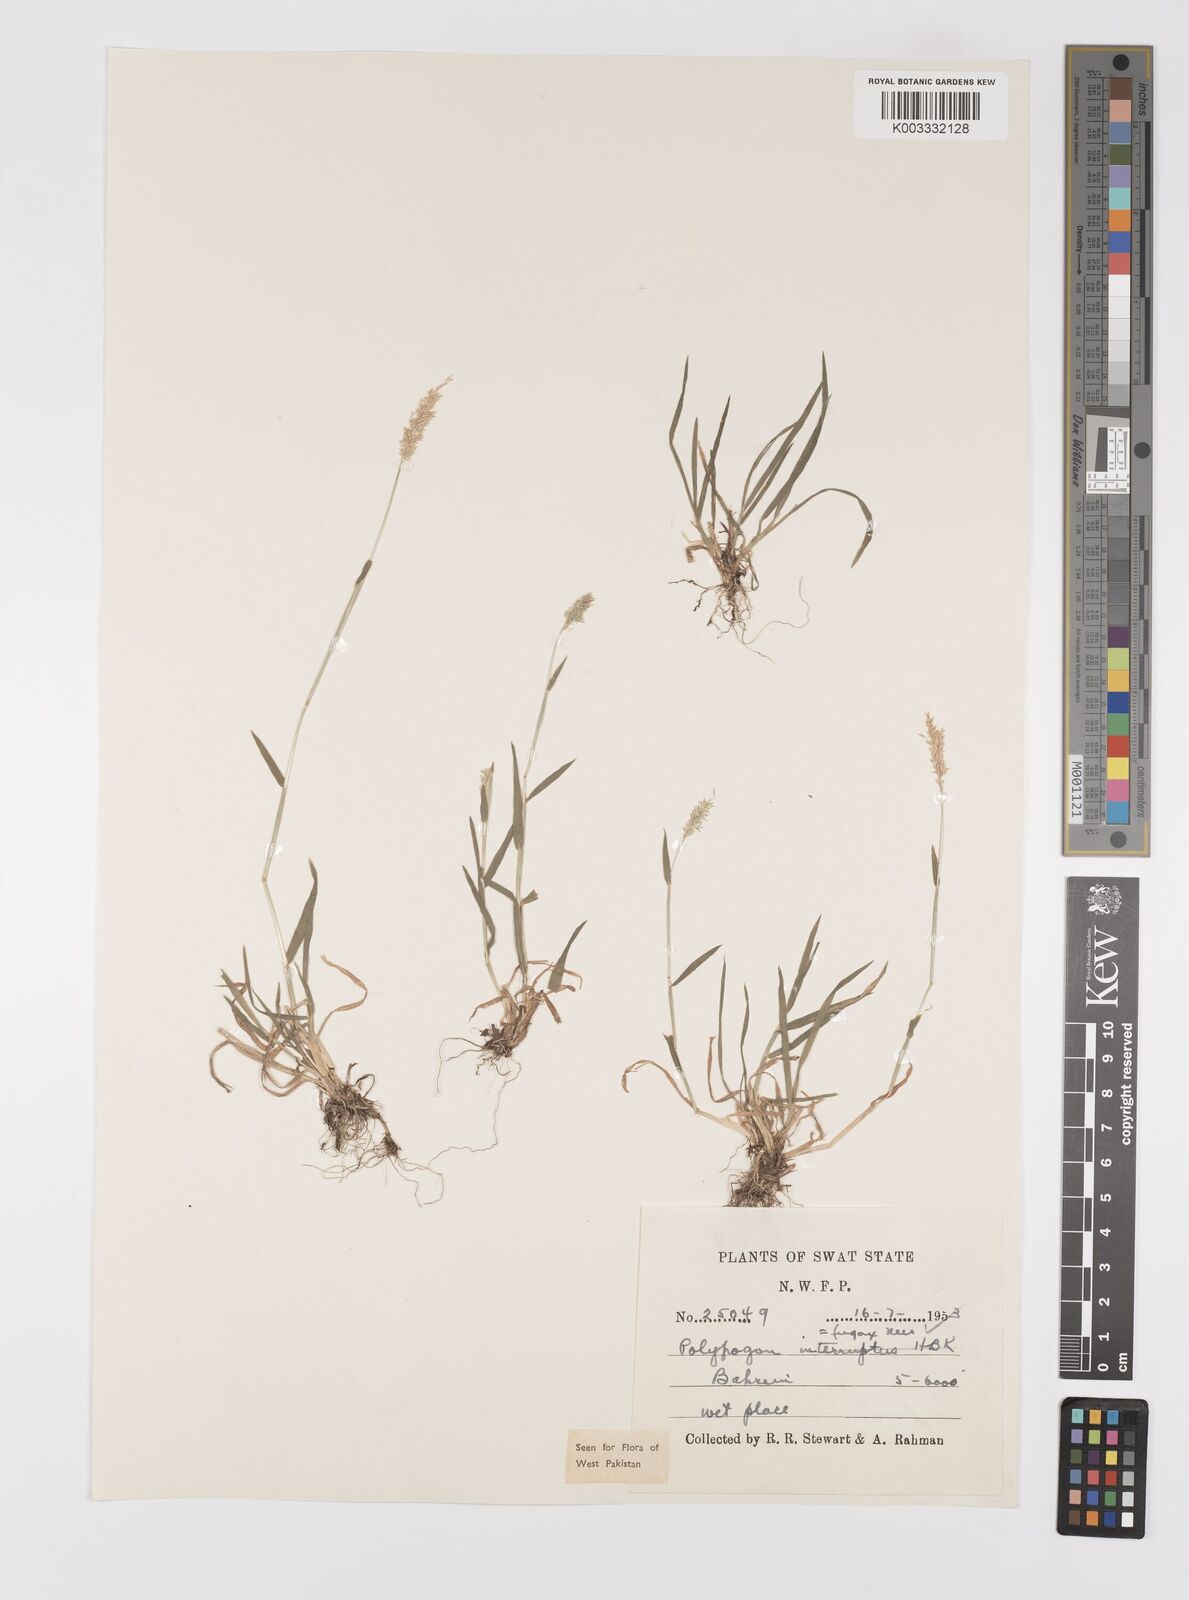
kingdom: Plantae
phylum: Tracheophyta
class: Liliopsida
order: Poales
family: Poaceae
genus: Polypogon
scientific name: Polypogon fugax
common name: Asia minor bluegrass
